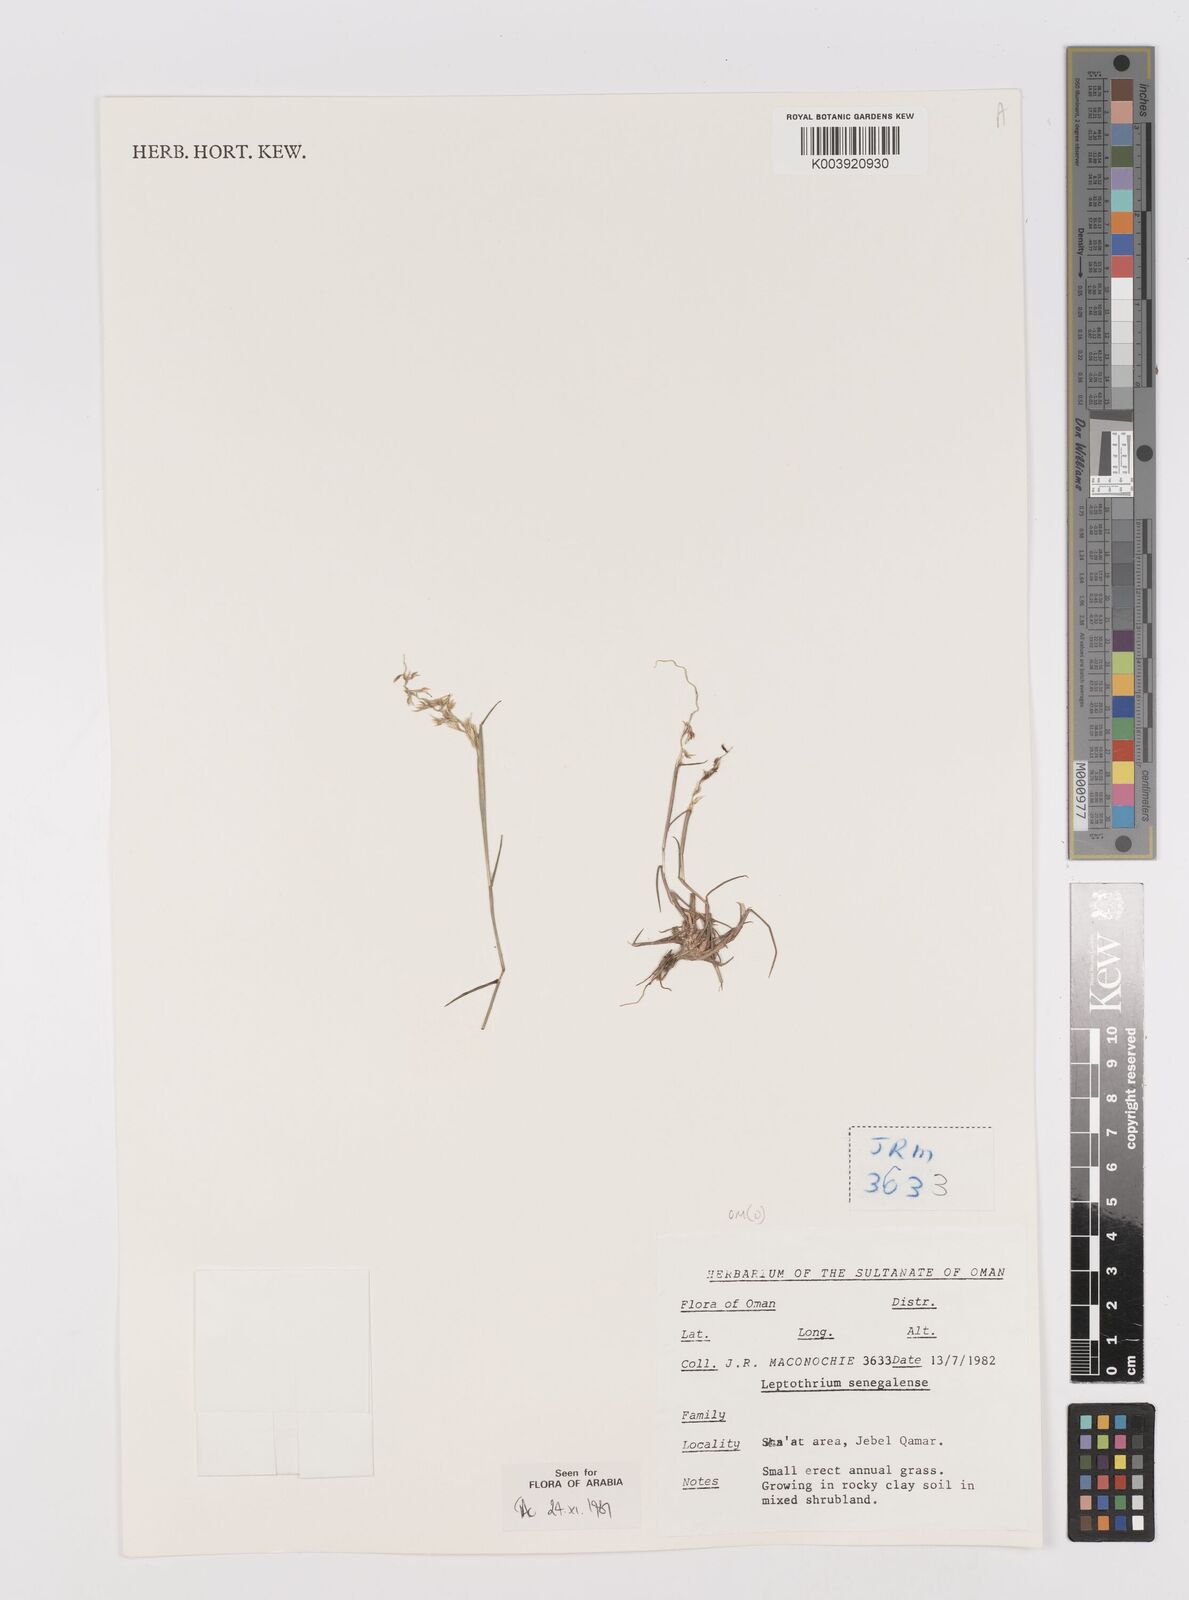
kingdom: Plantae
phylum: Tracheophyta
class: Liliopsida
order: Poales
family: Poaceae
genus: Leptothrium
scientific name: Leptothrium senegalense
